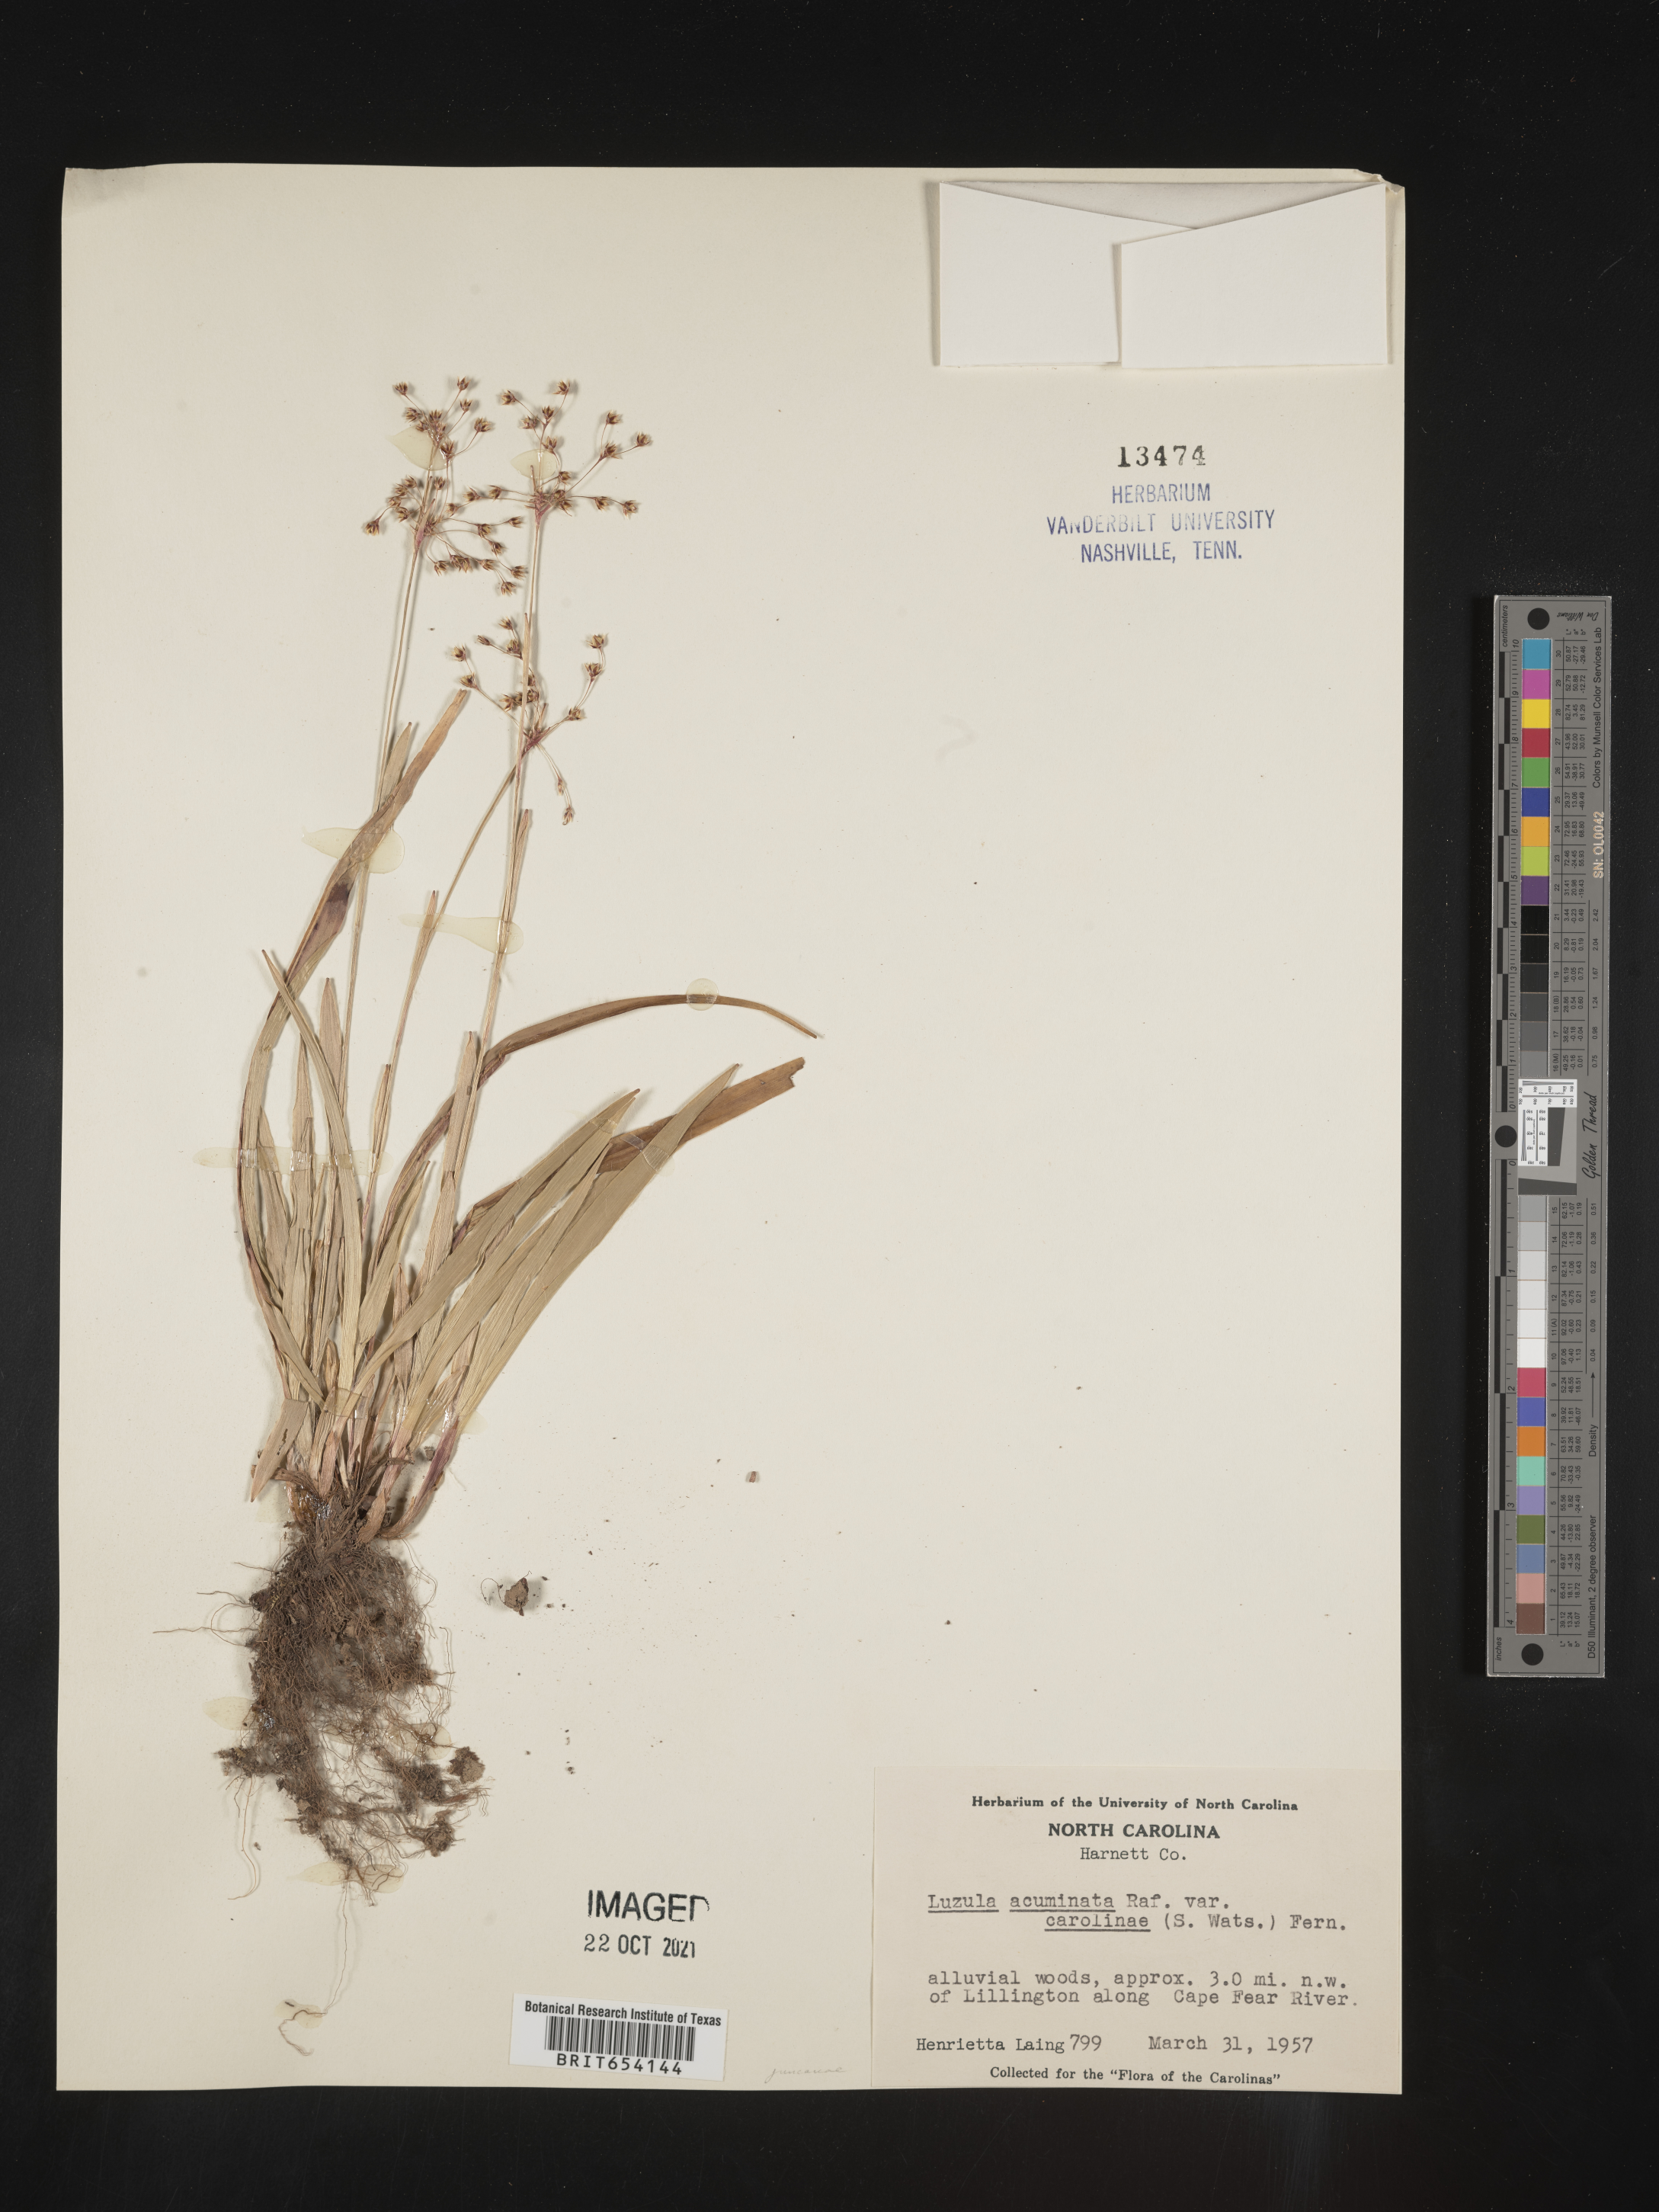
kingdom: Plantae
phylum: Tracheophyta
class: Liliopsida
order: Poales
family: Juncaceae
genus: Luzula
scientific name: Luzula acuminata
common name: Hairy woodrush
